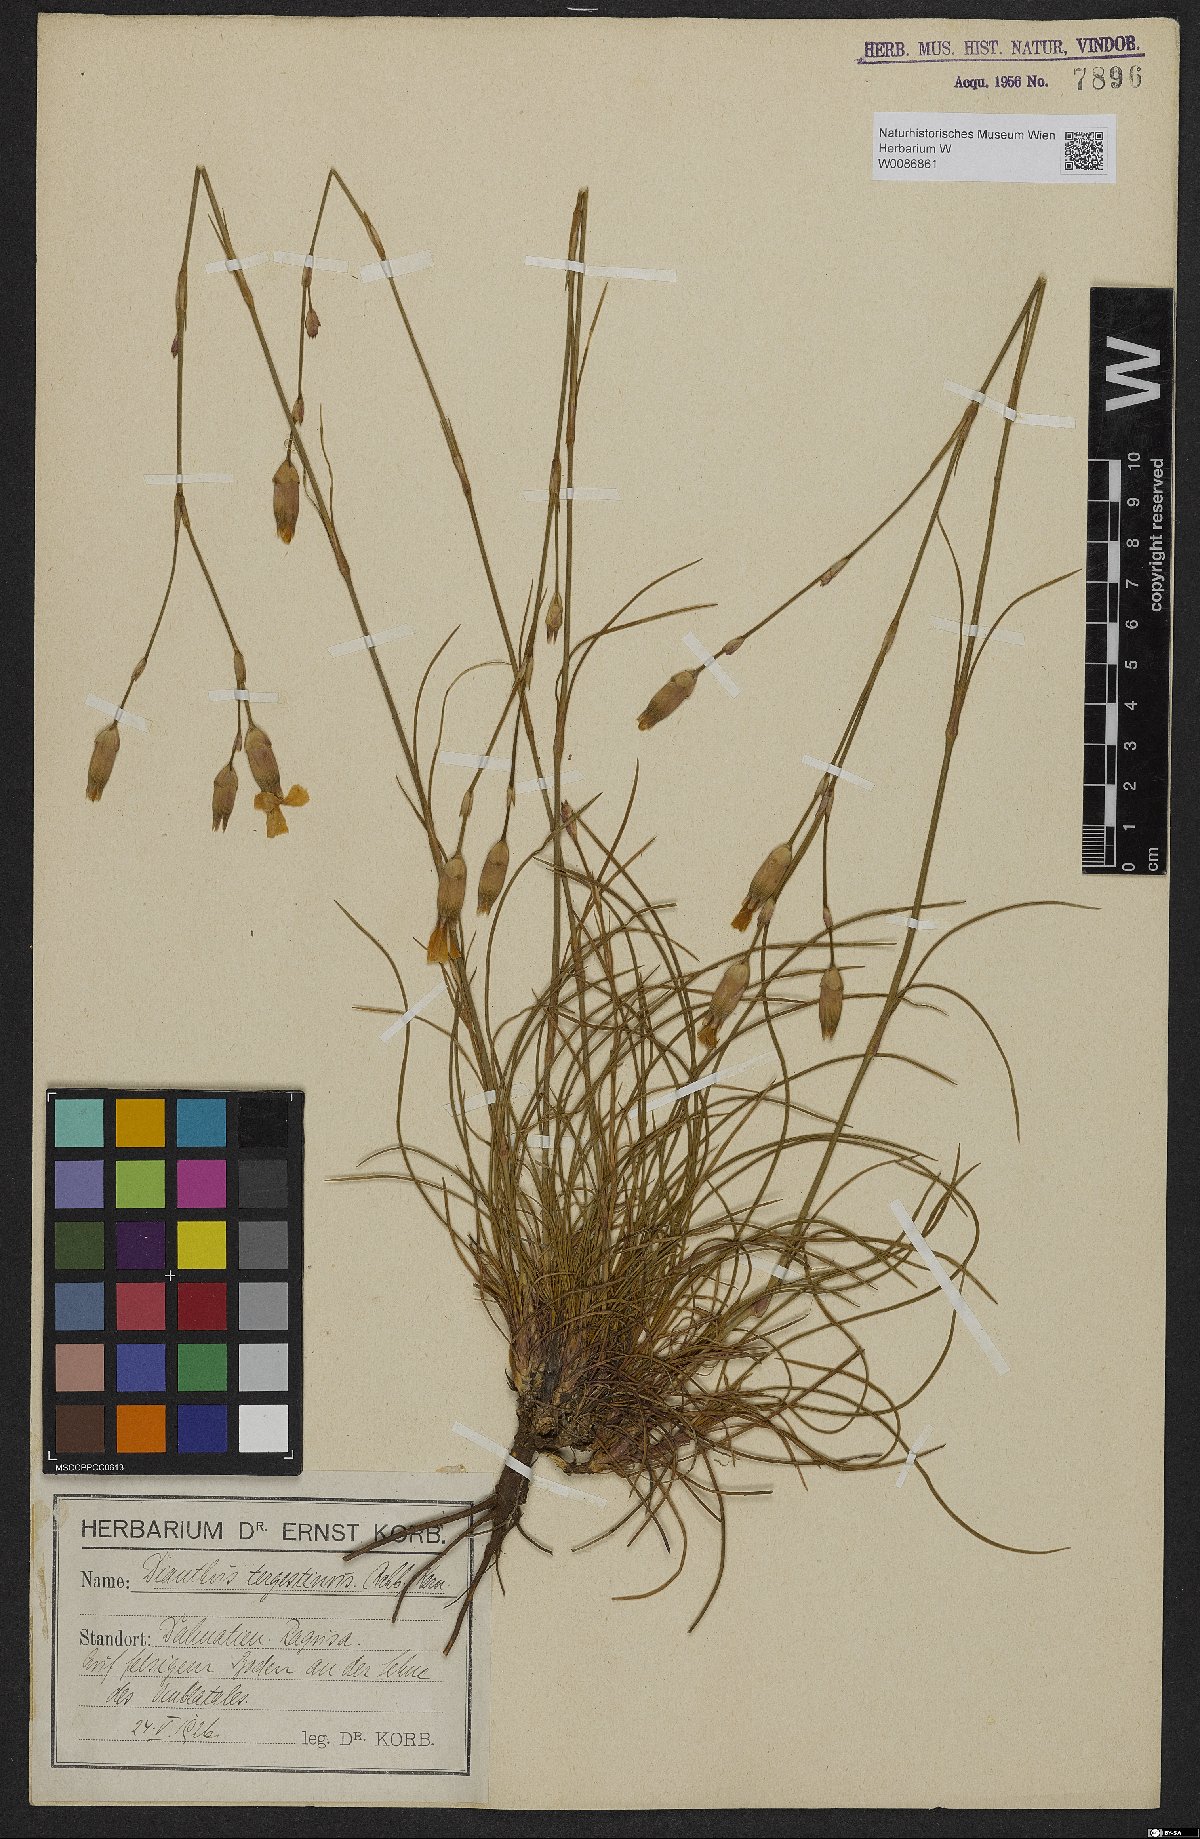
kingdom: Plantae
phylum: Tracheophyta
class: Magnoliopsida
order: Caryophyllales
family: Caryophyllaceae
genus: Dianthus
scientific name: Dianthus sylvestris
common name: Wood pink
